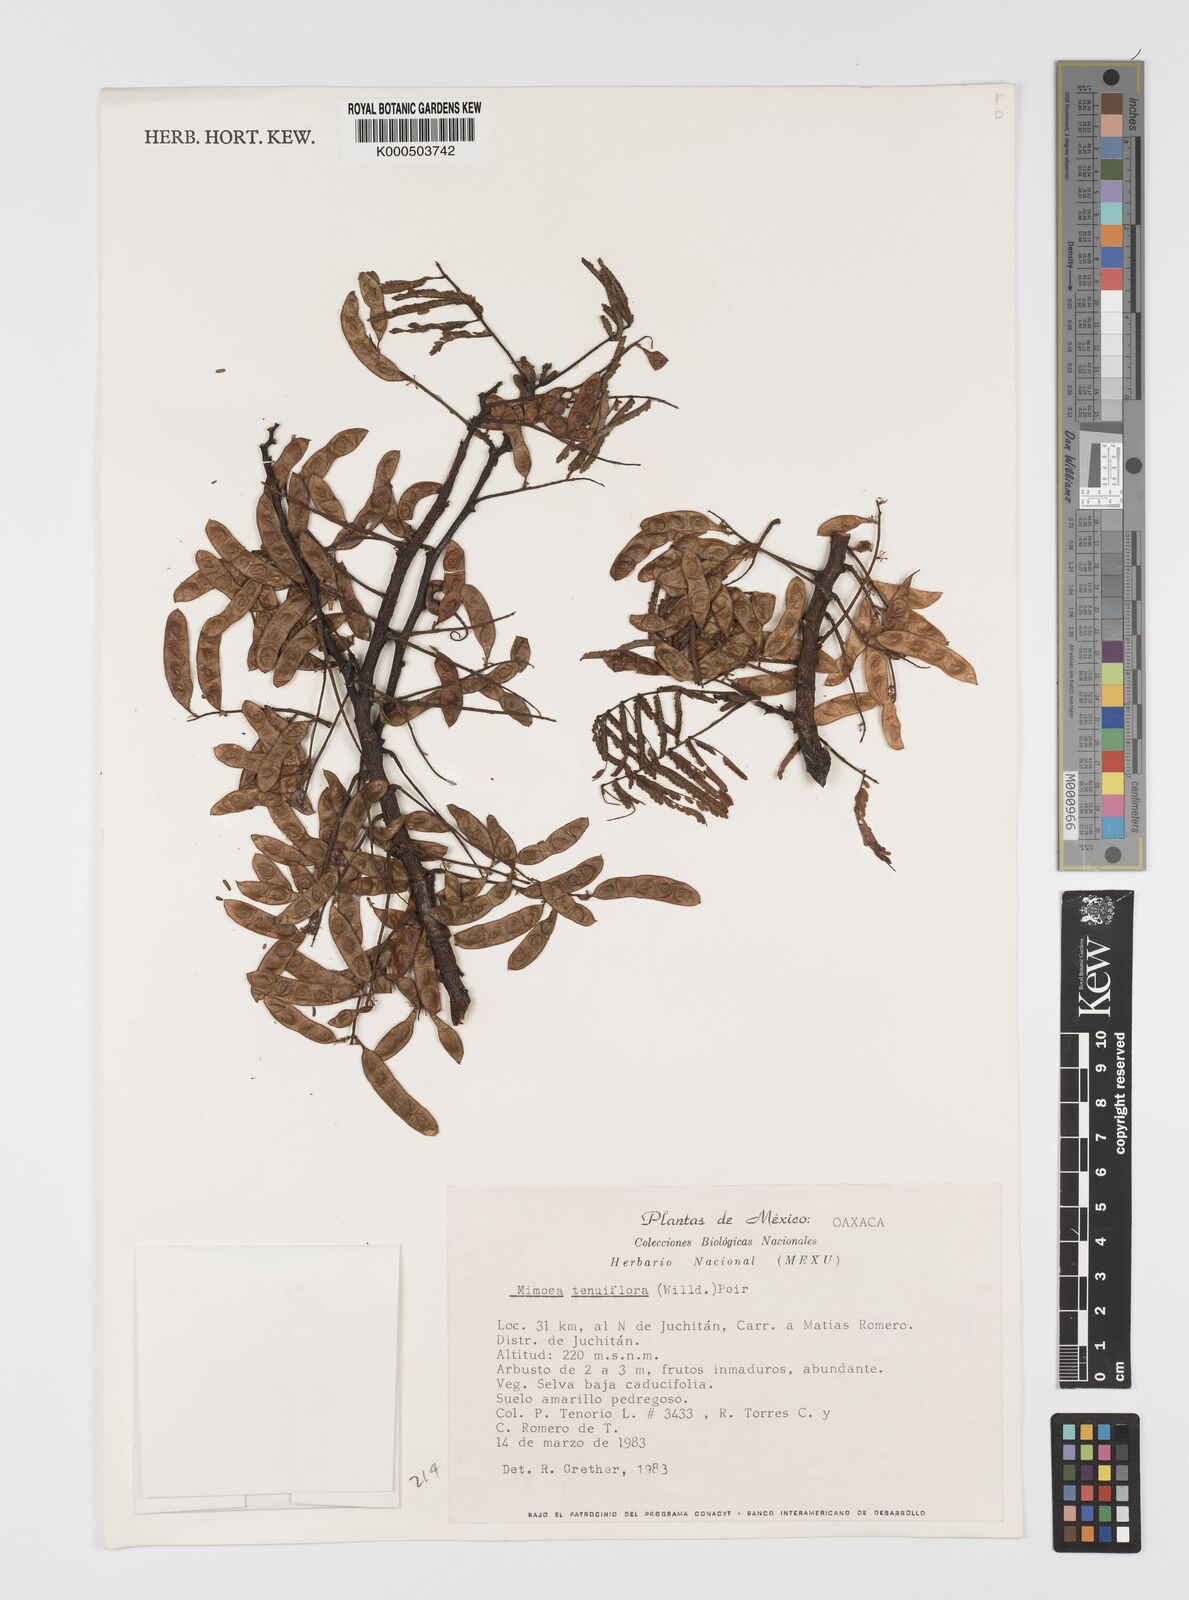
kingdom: Plantae
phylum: Tracheophyta
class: Magnoliopsida
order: Fabales
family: Fabaceae
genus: Mimosa
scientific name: Mimosa tenuiflora
